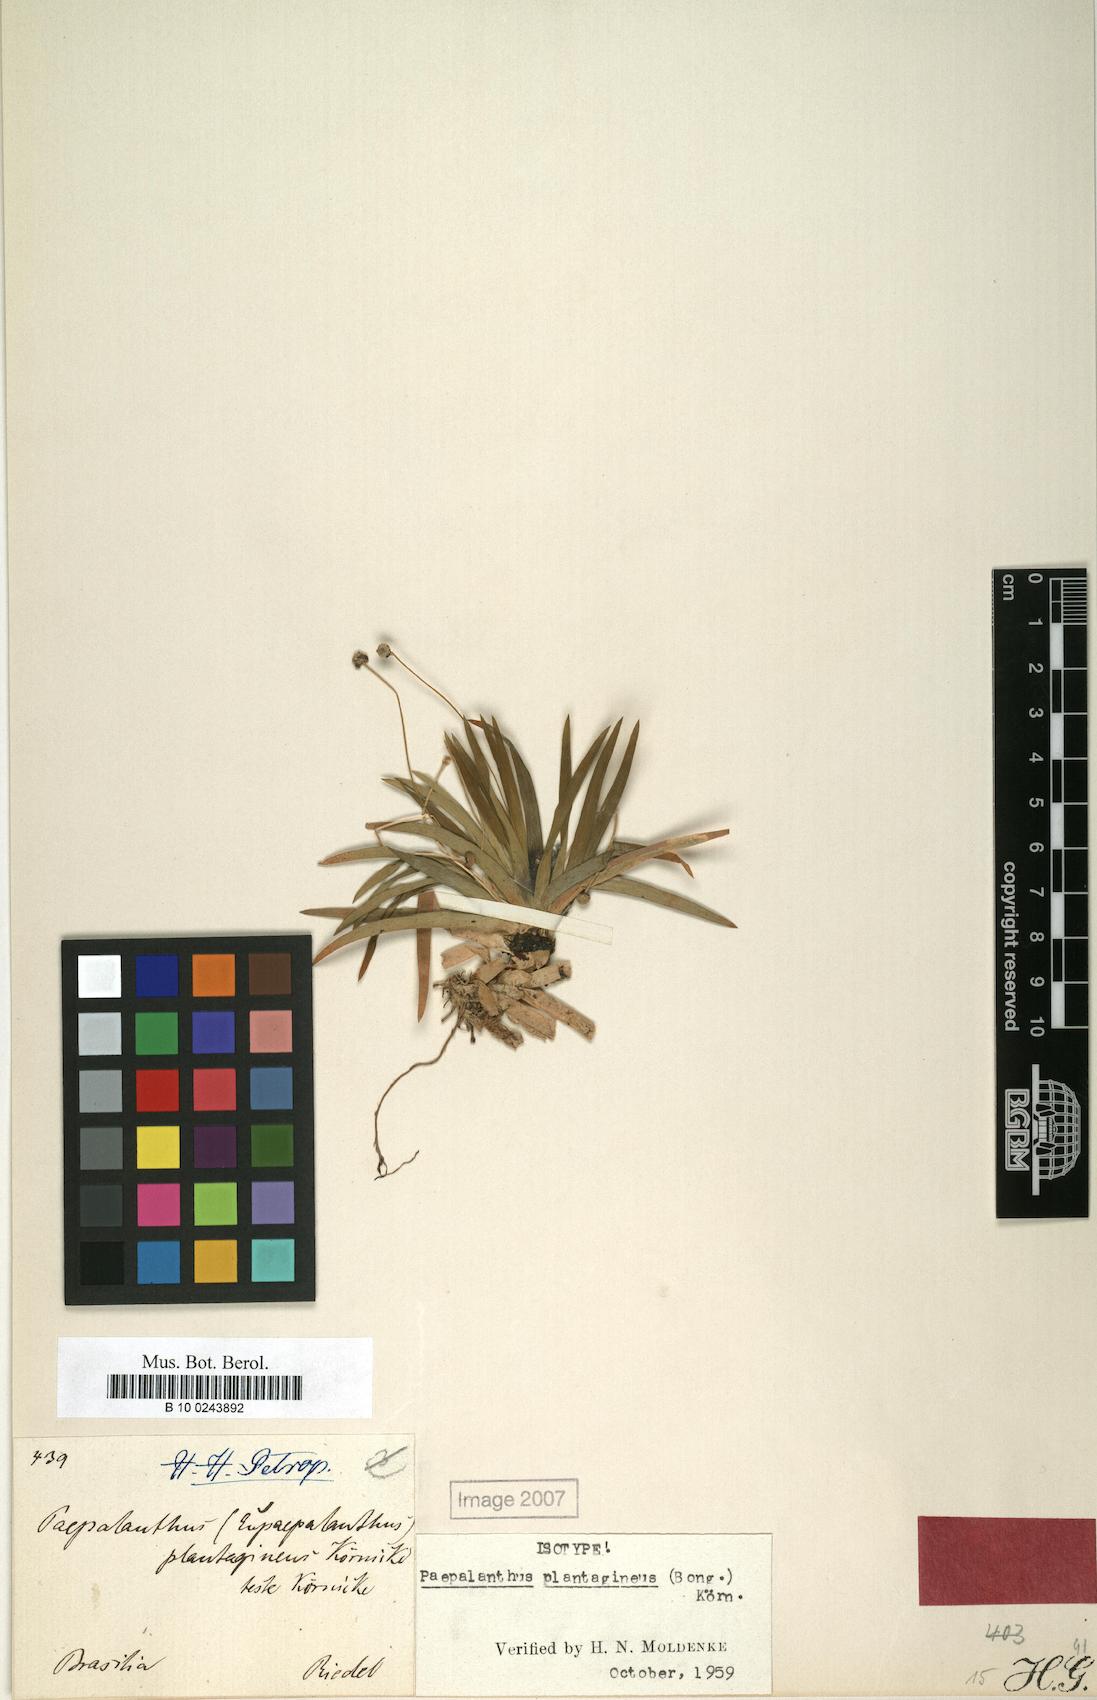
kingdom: Plantae
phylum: Tracheophyta
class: Liliopsida
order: Poales
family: Eriocaulaceae
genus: Paepalanthus
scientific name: Paepalanthus plantagineus
